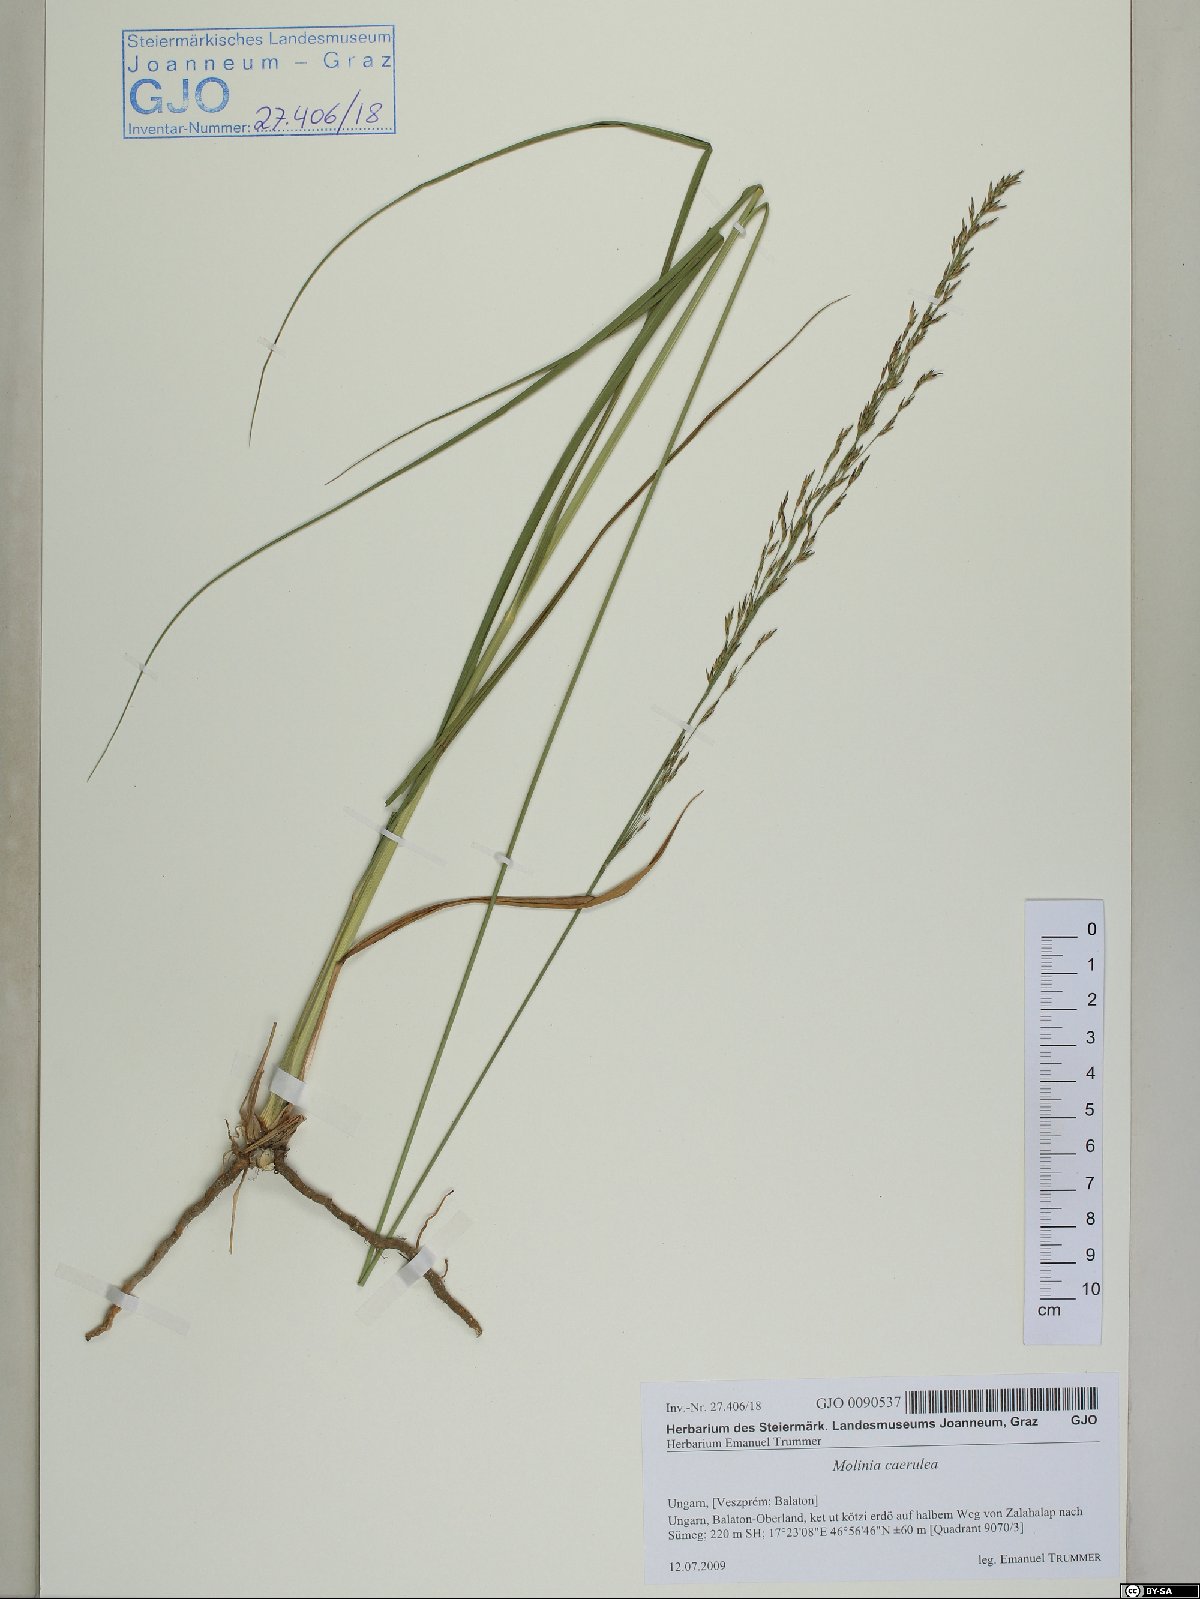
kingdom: Plantae
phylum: Tracheophyta
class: Liliopsida
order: Poales
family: Poaceae
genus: Molinia
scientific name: Molinia caerulea
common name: Purple moor-grass
